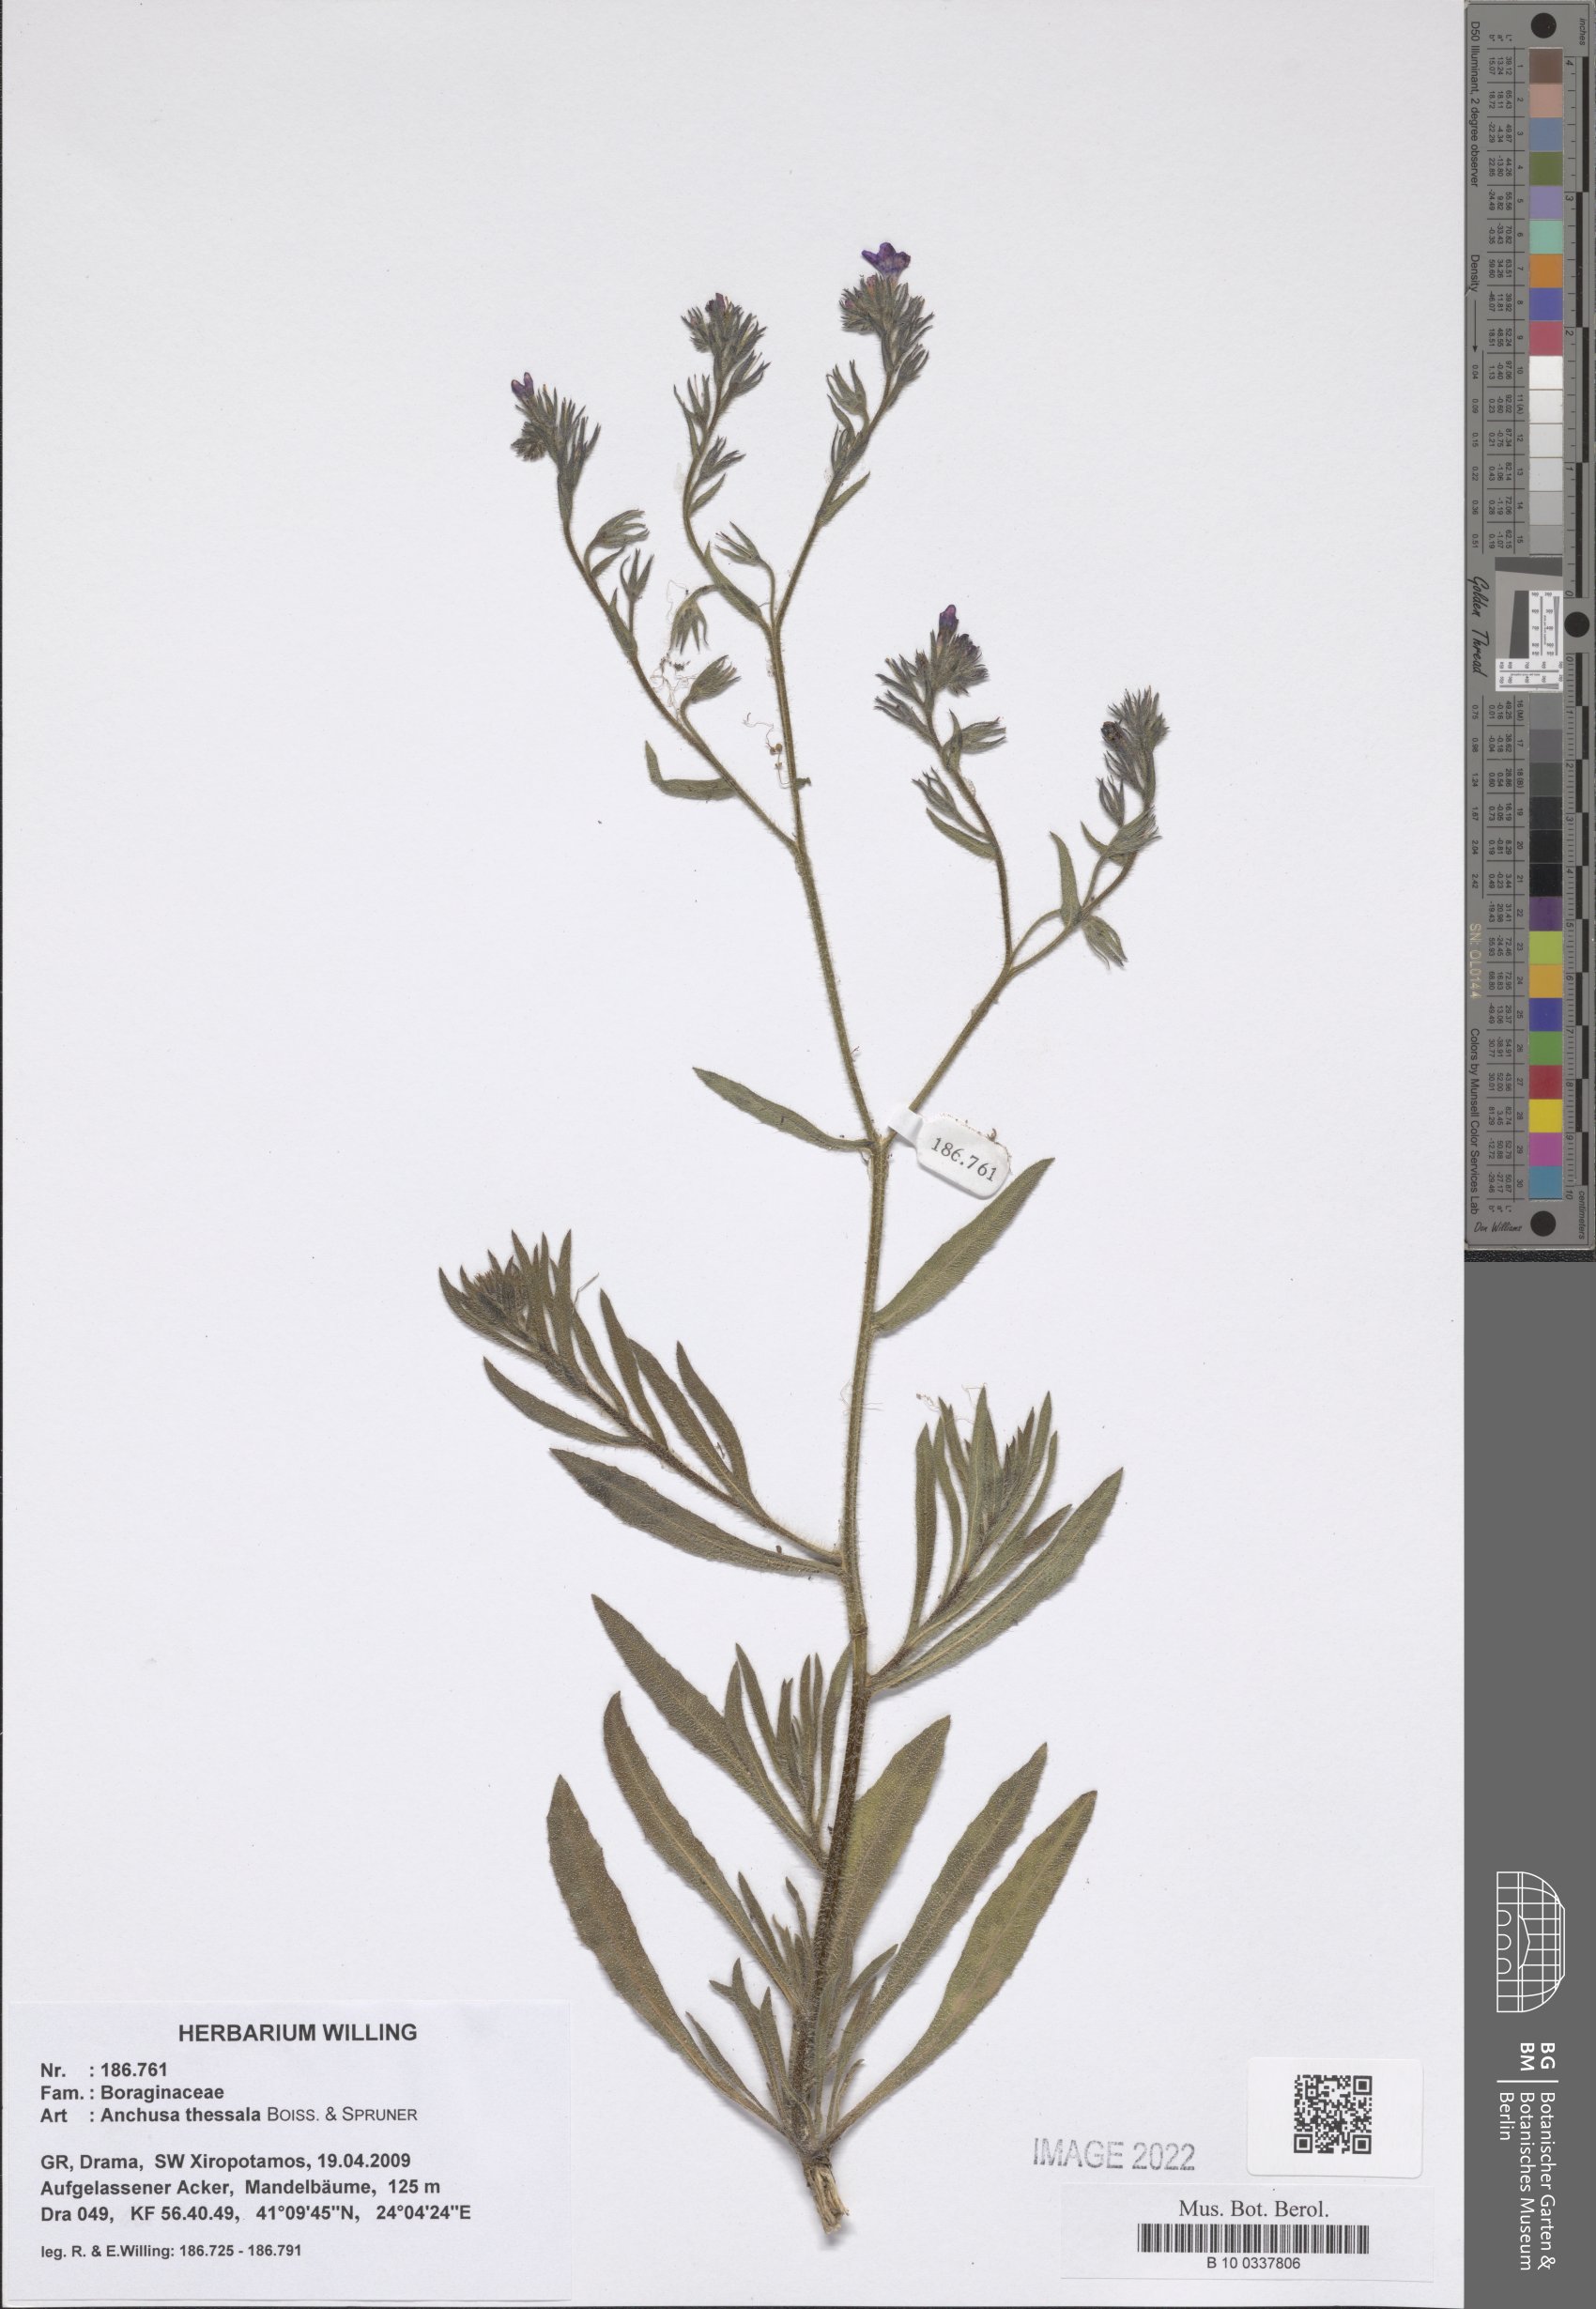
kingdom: Plantae
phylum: Tracheophyta
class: Magnoliopsida
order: Boraginales
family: Boraginaceae
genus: Anchusa
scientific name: Anchusa thessala
